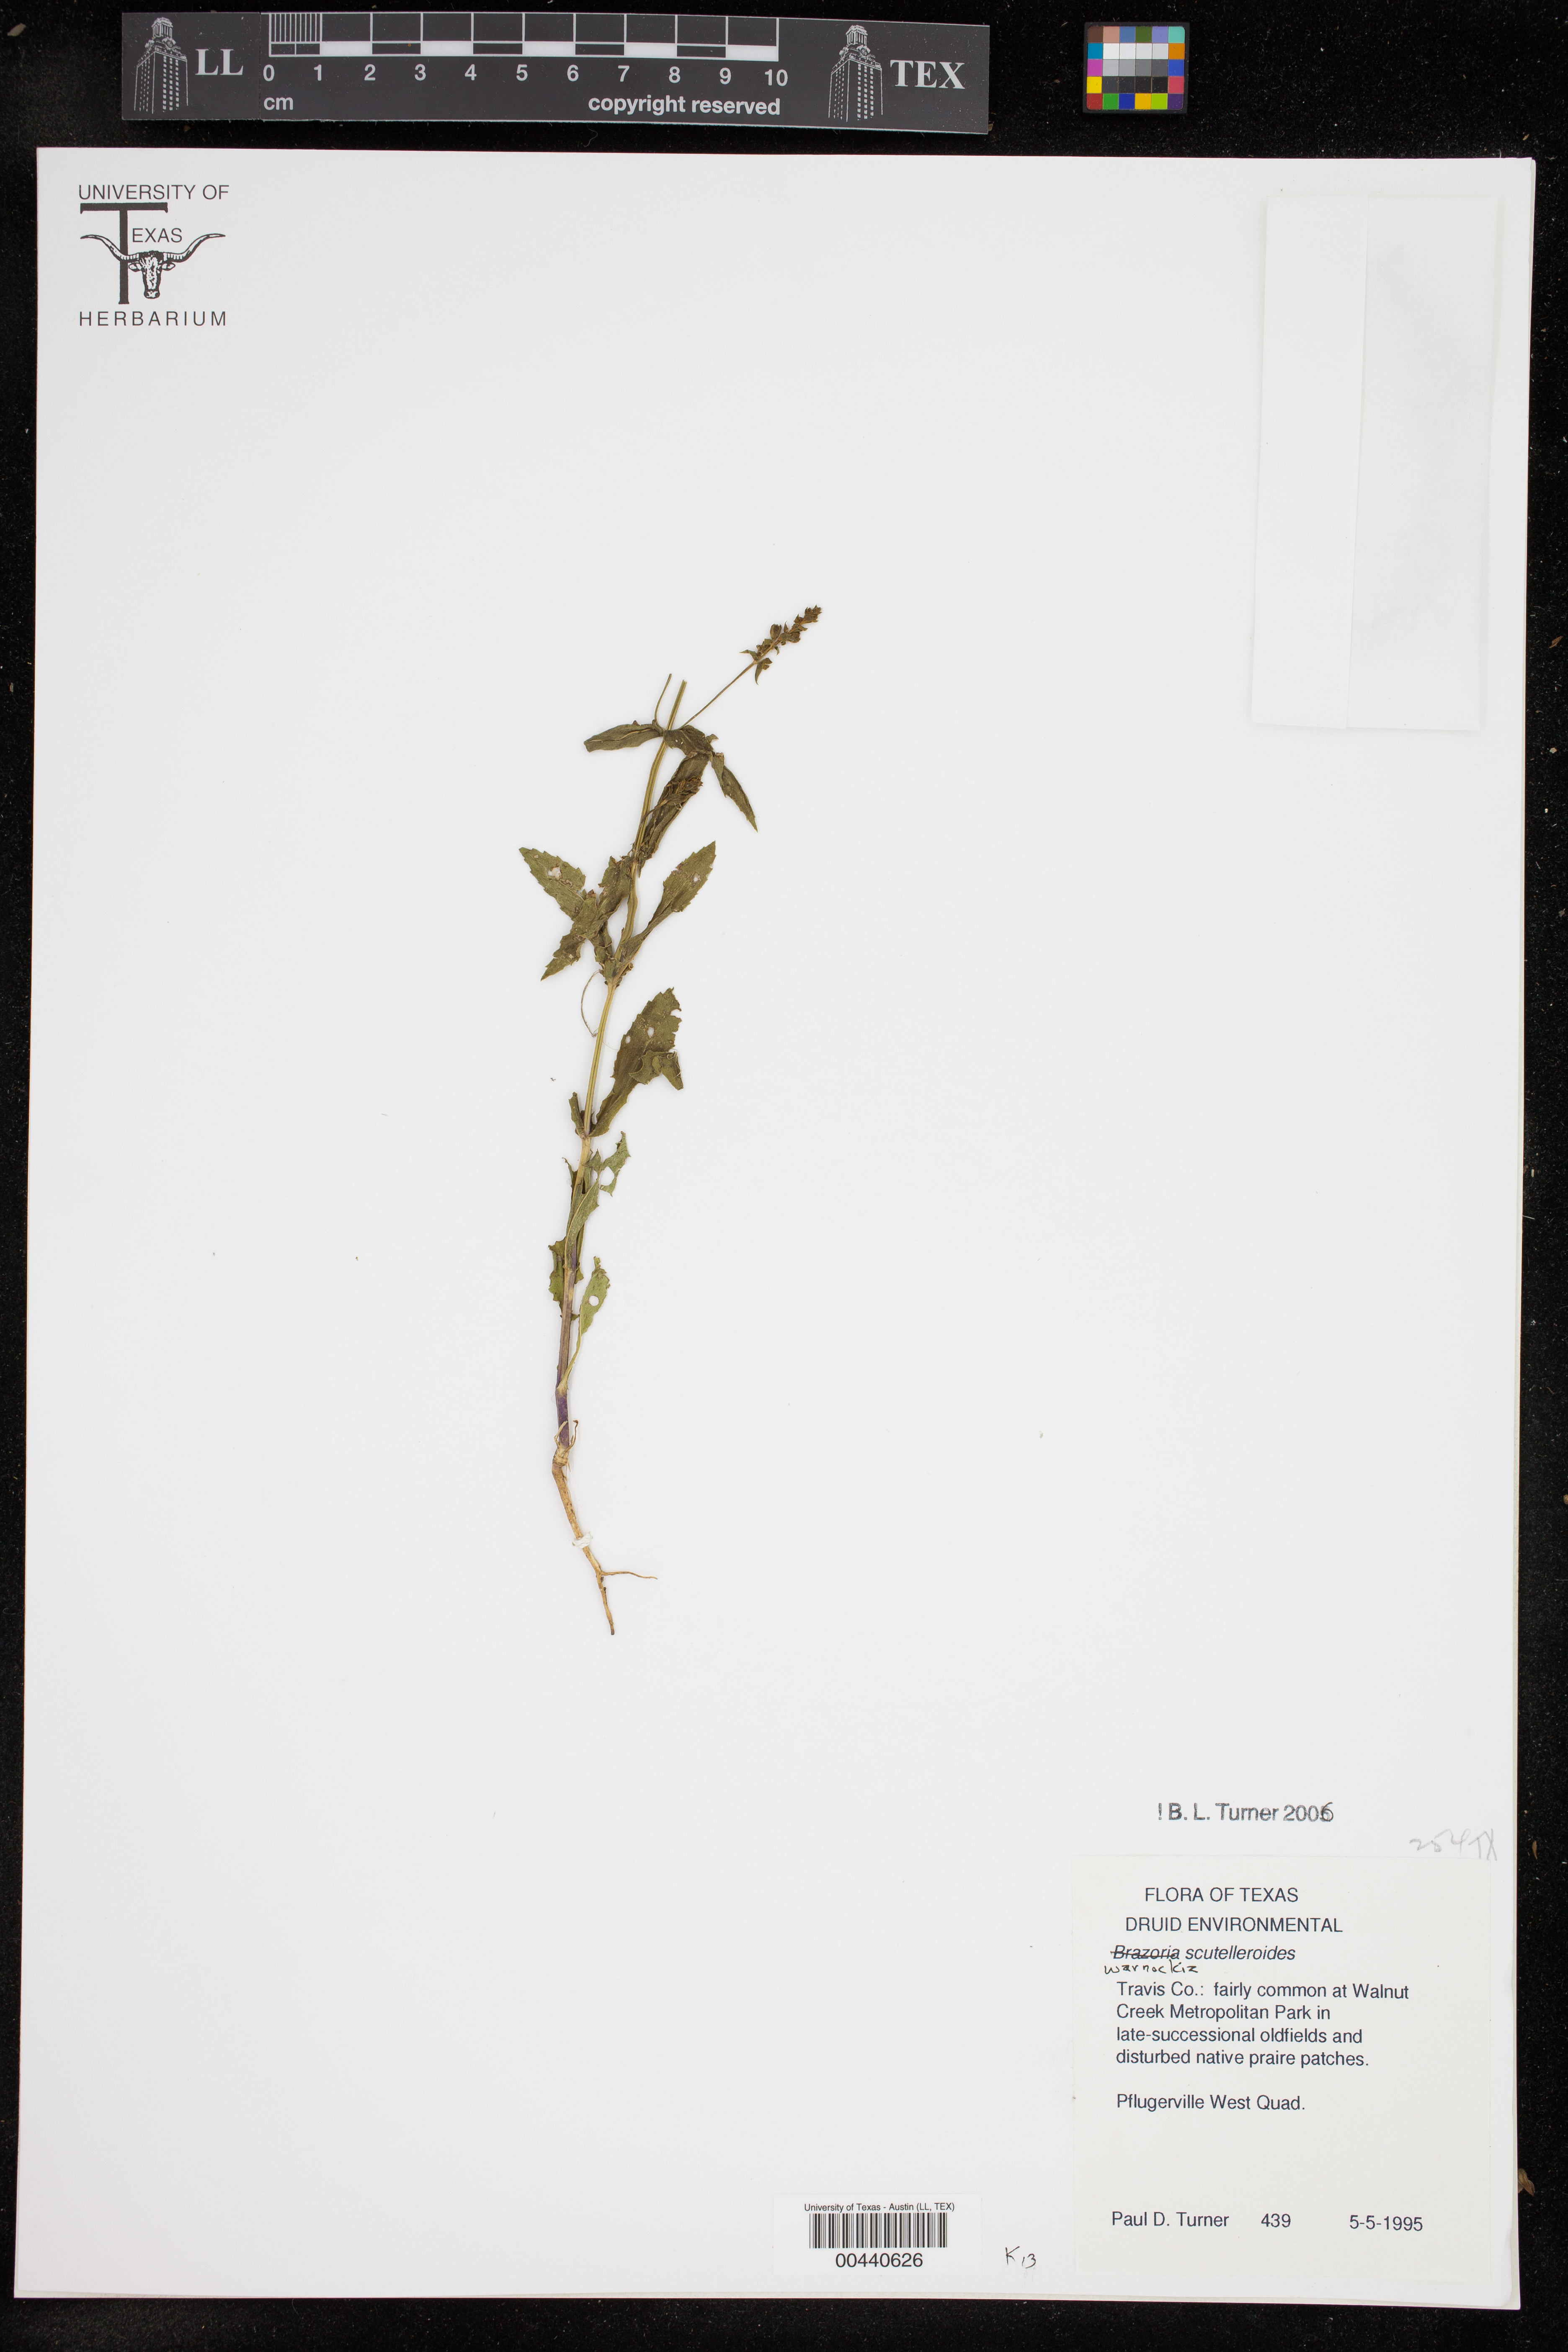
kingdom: Plantae
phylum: Tracheophyta
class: Magnoliopsida
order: Lamiales
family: Lamiaceae
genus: Warnockia
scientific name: Warnockia scutellarioides
